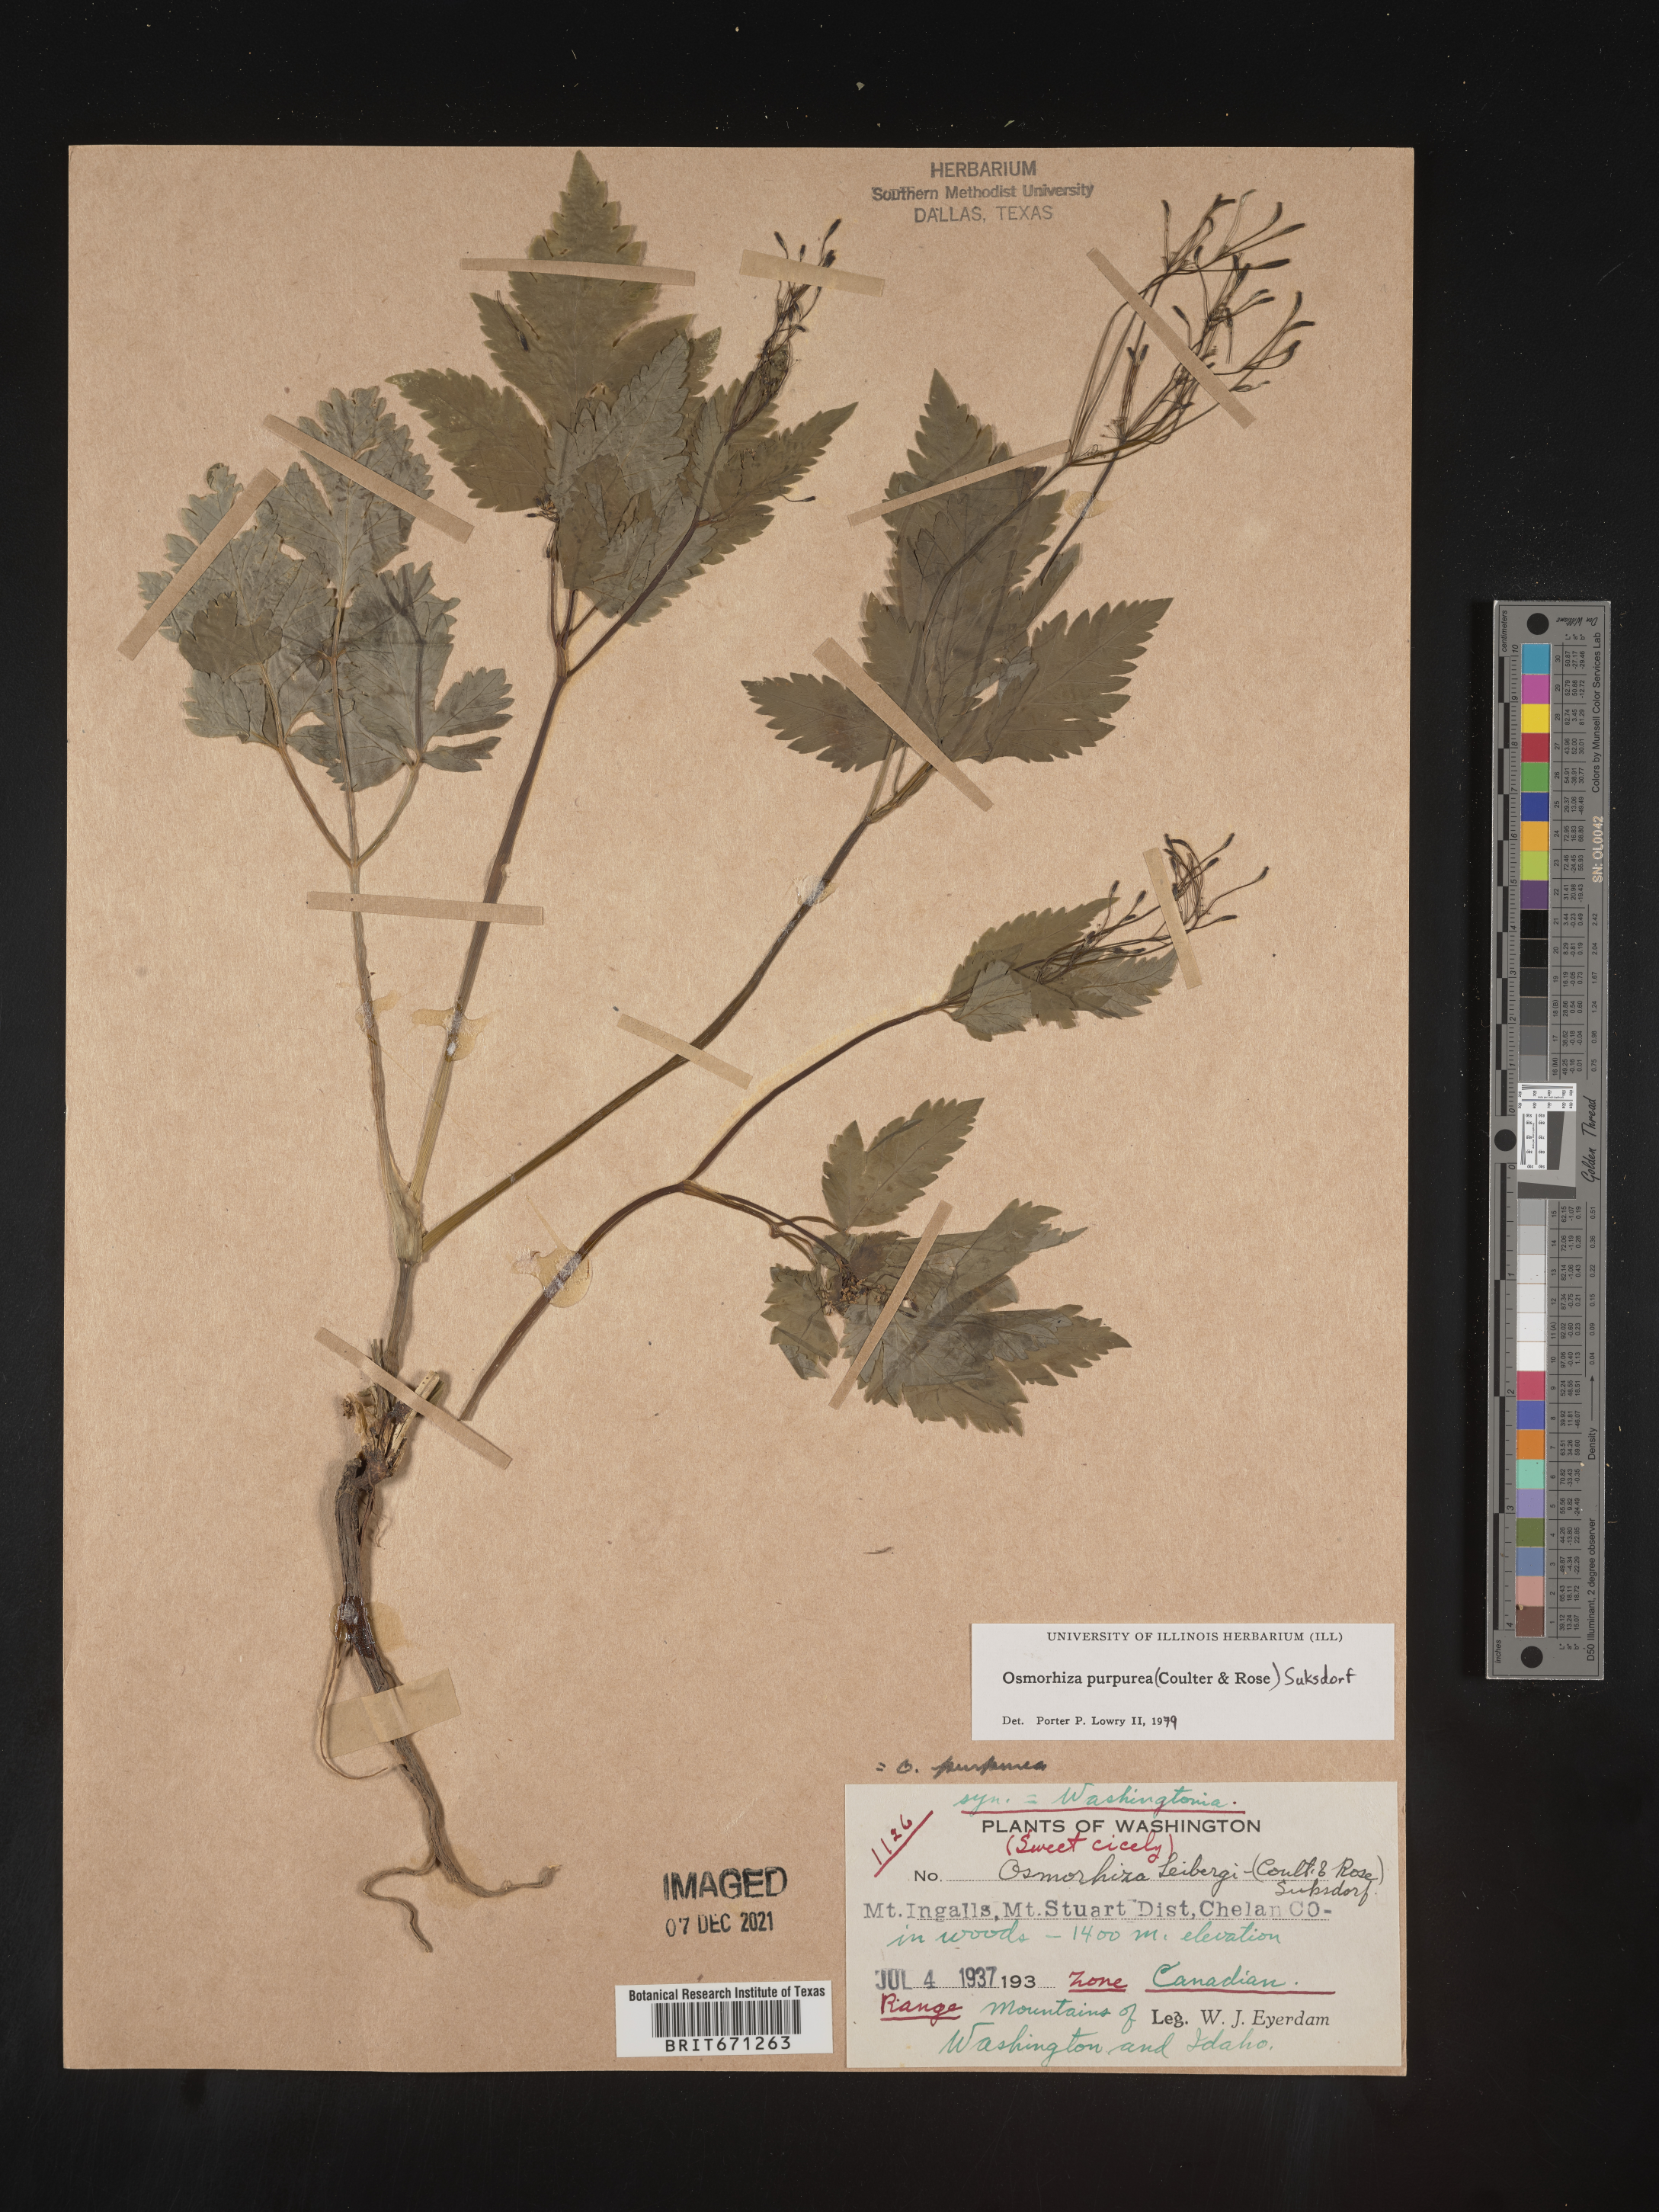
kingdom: Plantae
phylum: Tracheophyta
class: Magnoliopsida
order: Apiales
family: Apiaceae
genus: Osmorhiza
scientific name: Osmorhiza purpurea
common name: Purple sweet cicely
